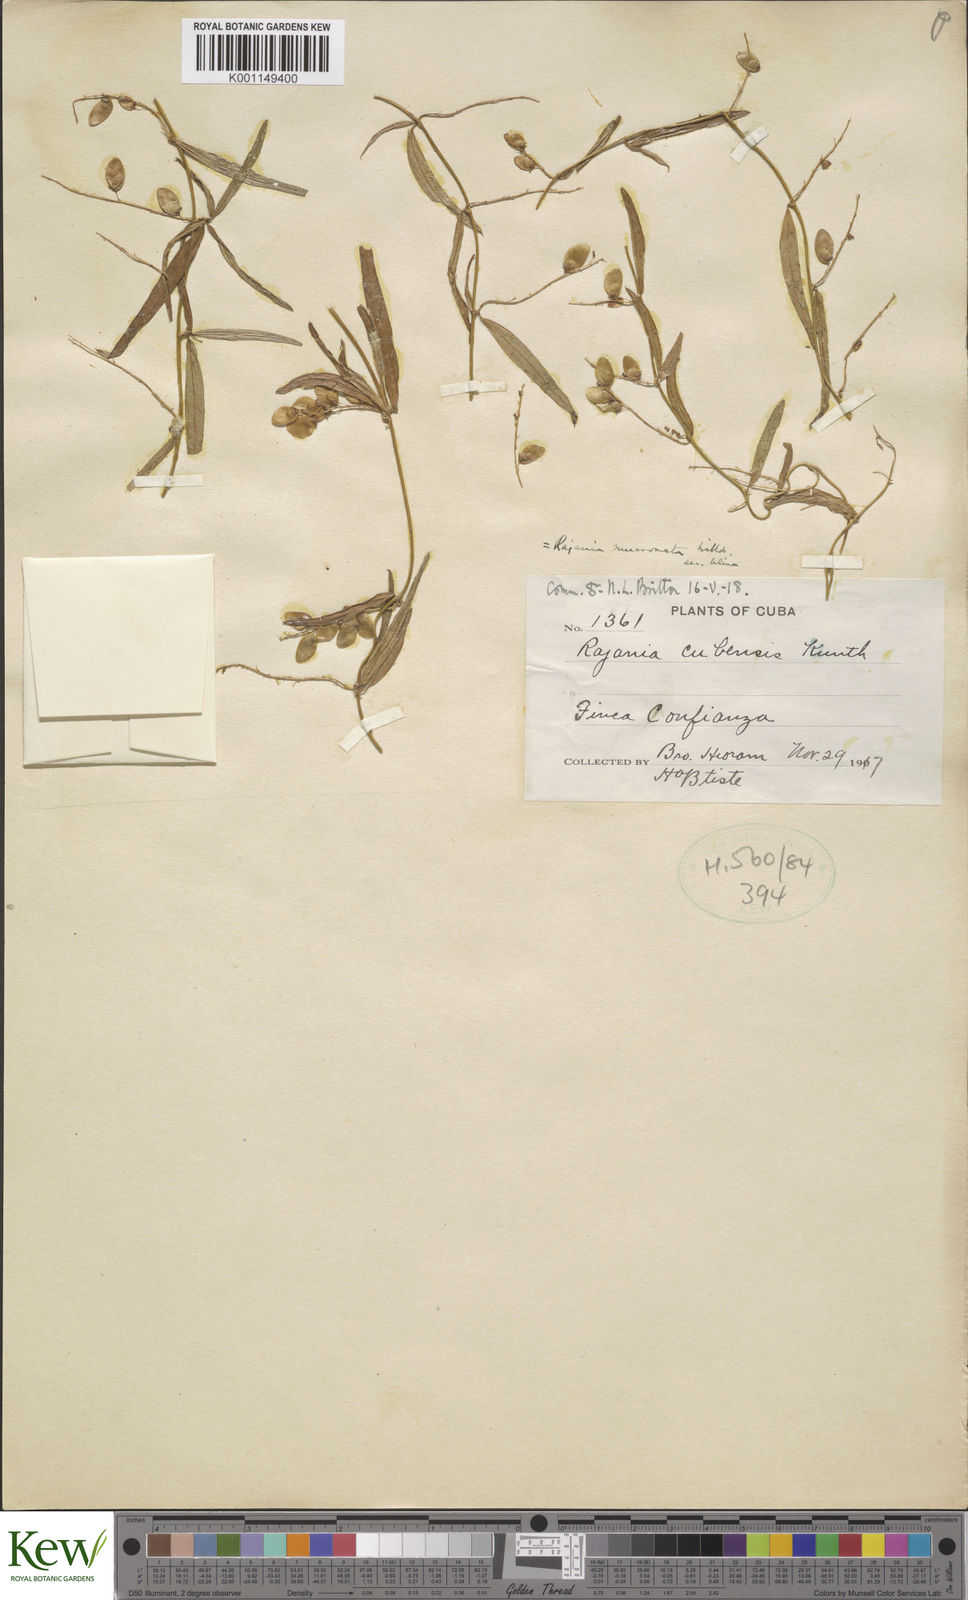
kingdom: Plantae
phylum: Tracheophyta
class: Liliopsida
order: Dioscoreales
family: Dioscoreaceae
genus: Dioscorea
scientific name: Dioscorea
